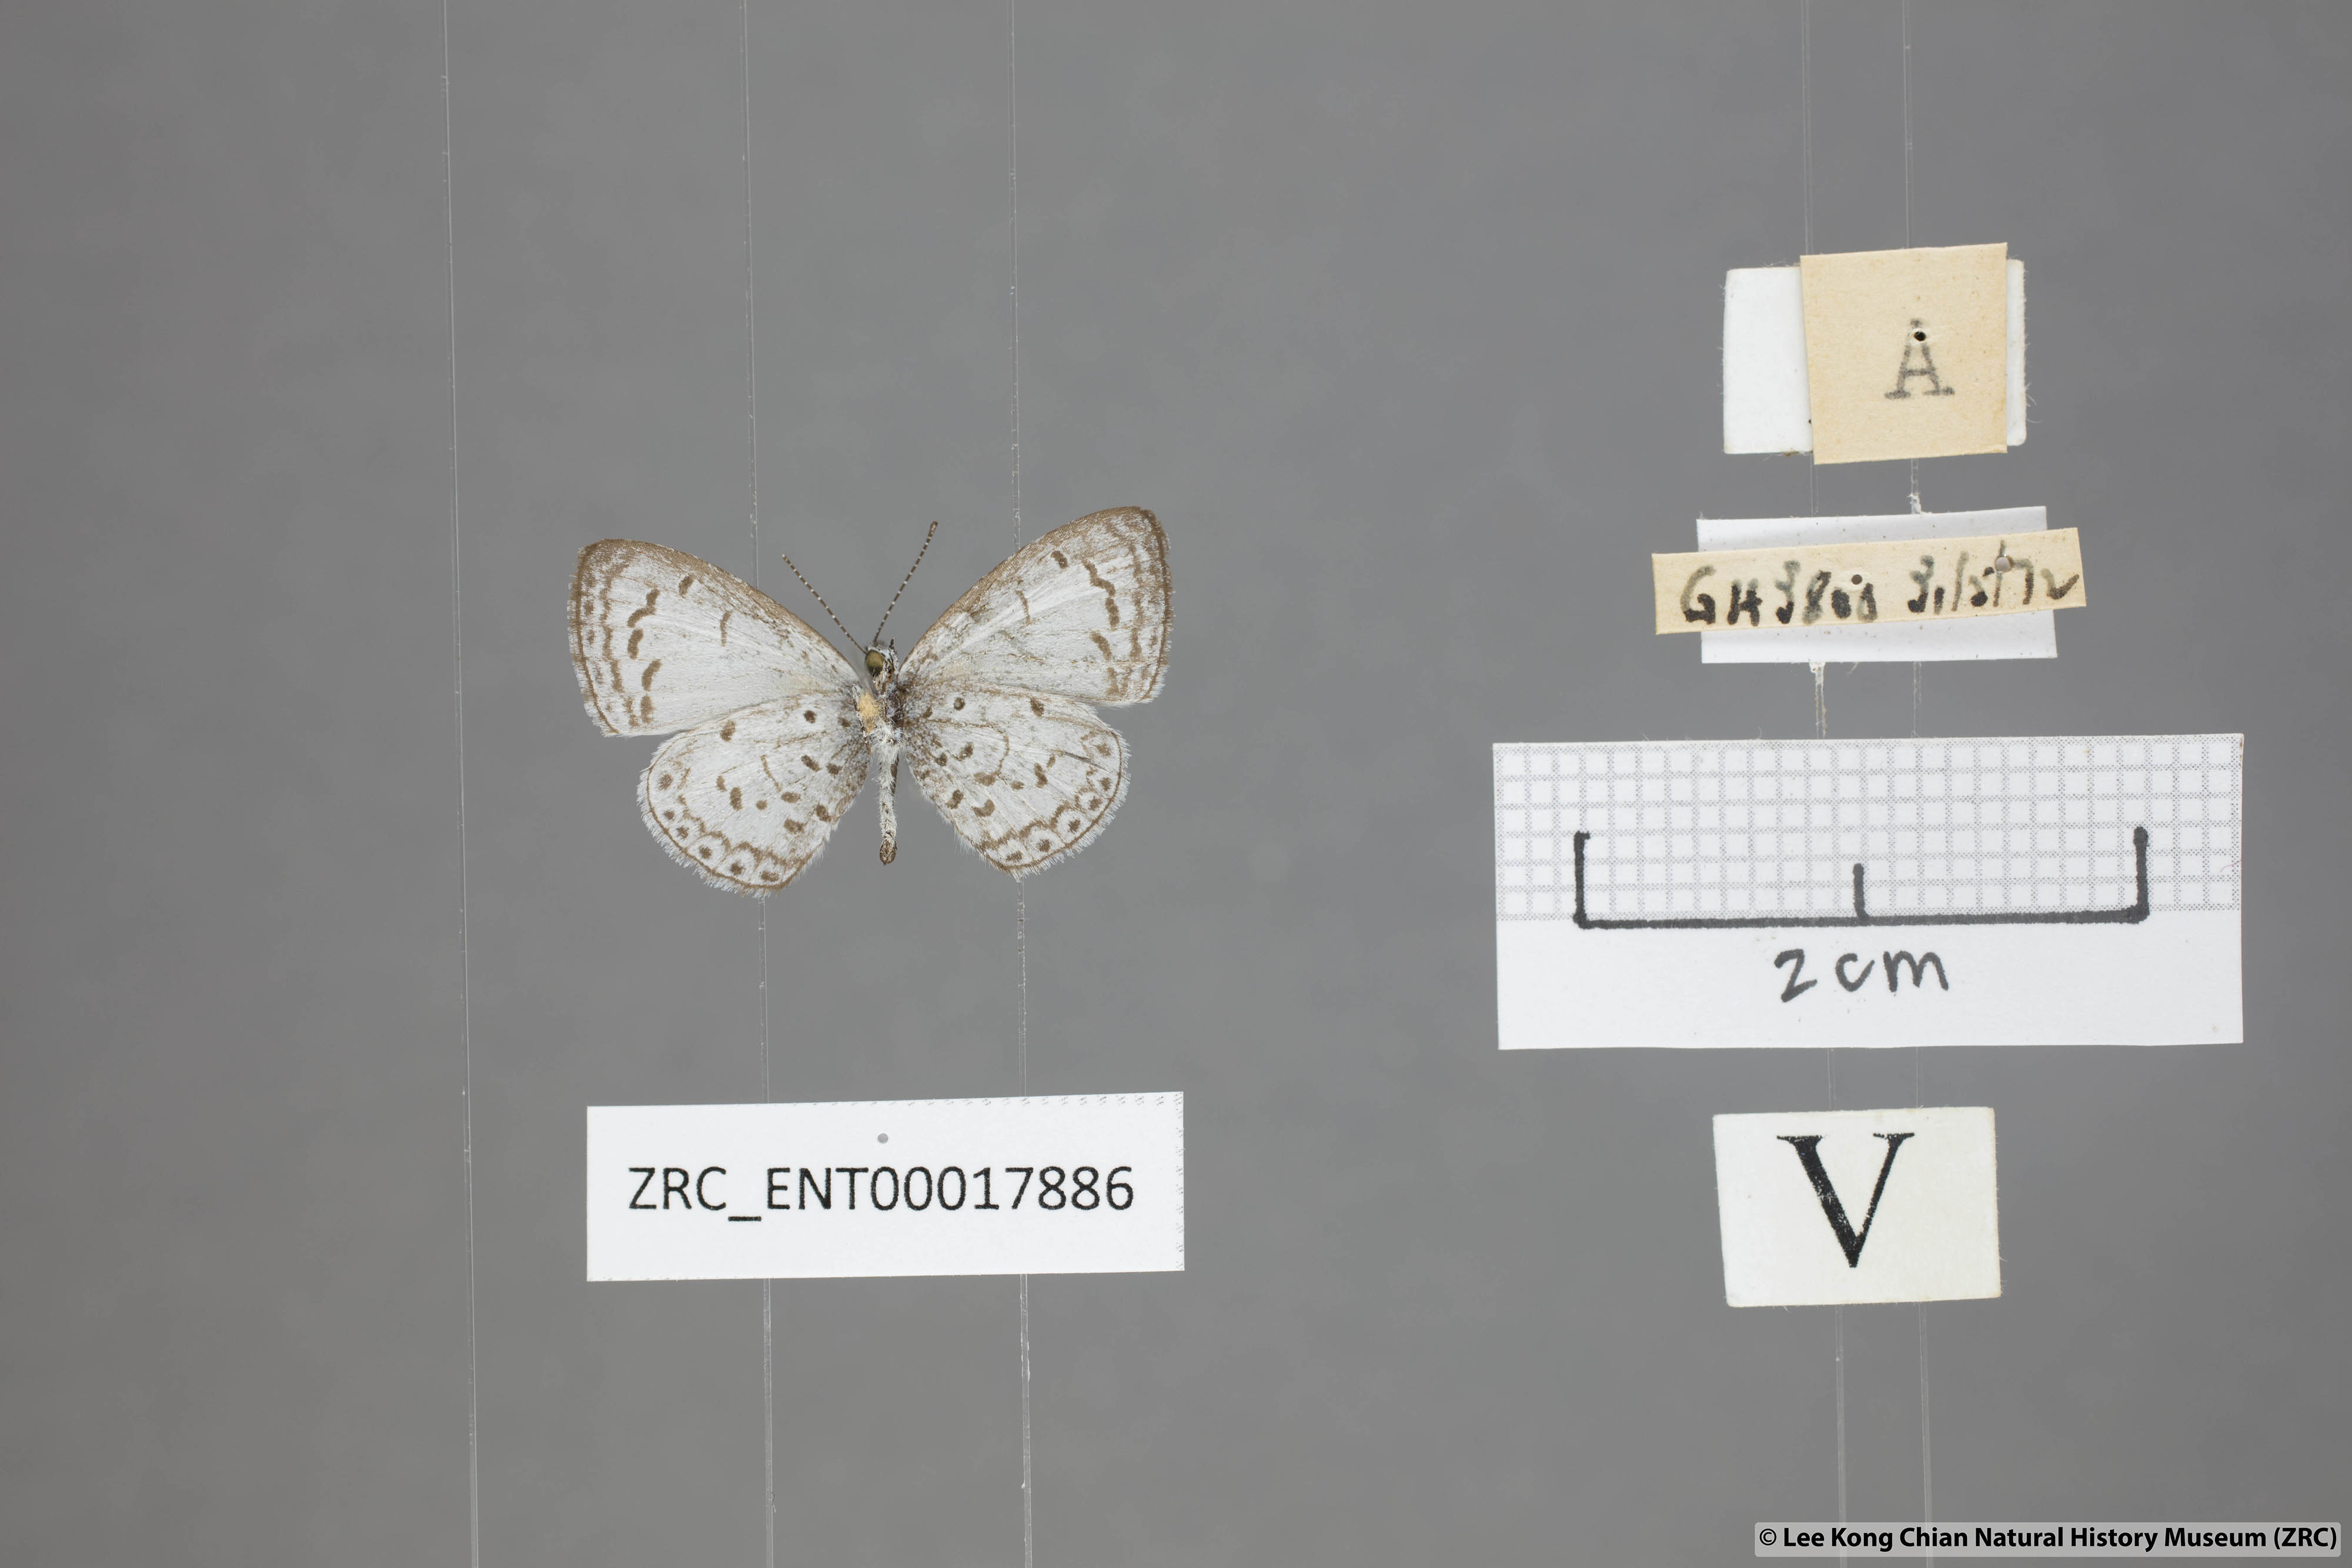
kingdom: Animalia
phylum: Arthropoda
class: Insecta
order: Lepidoptera
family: Lycaenidae
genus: Oreolyce
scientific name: Oreolyce
